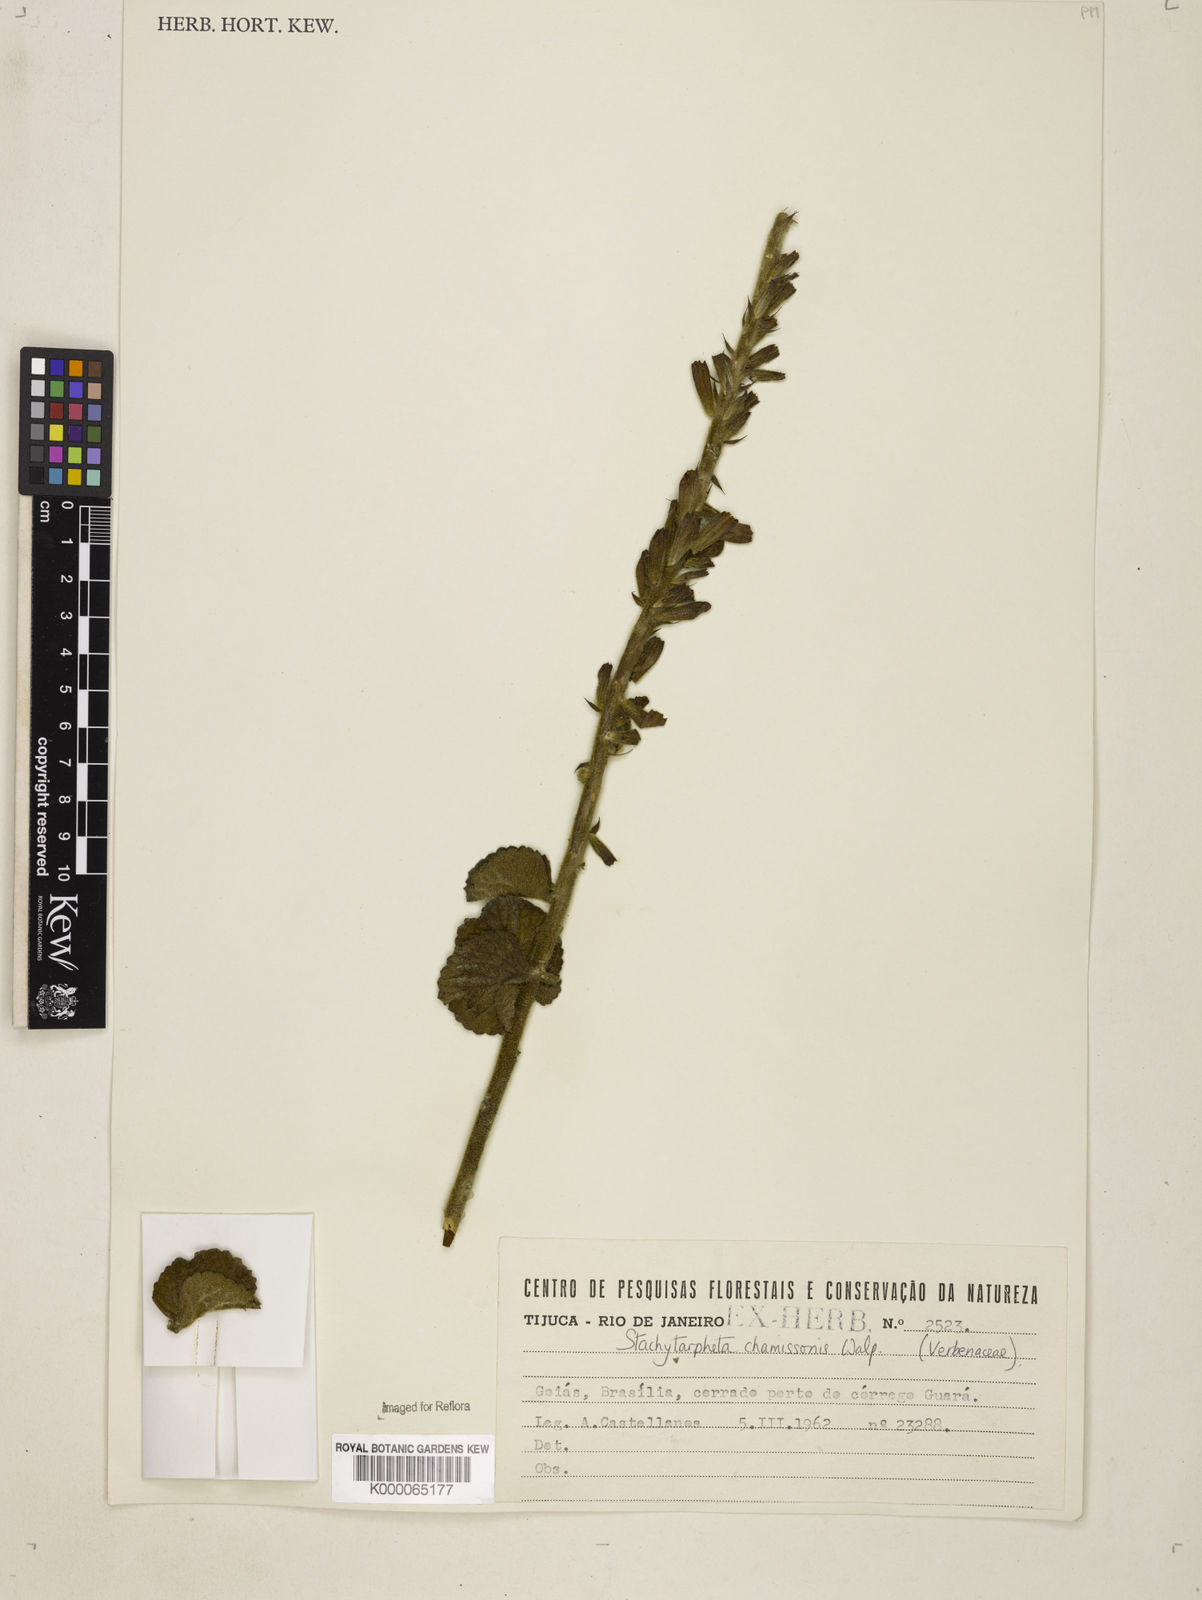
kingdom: Plantae
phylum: Tracheophyta
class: Magnoliopsida
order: Lamiales
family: Verbenaceae
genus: Stachytarpheta
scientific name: Stachytarpheta longispicata
